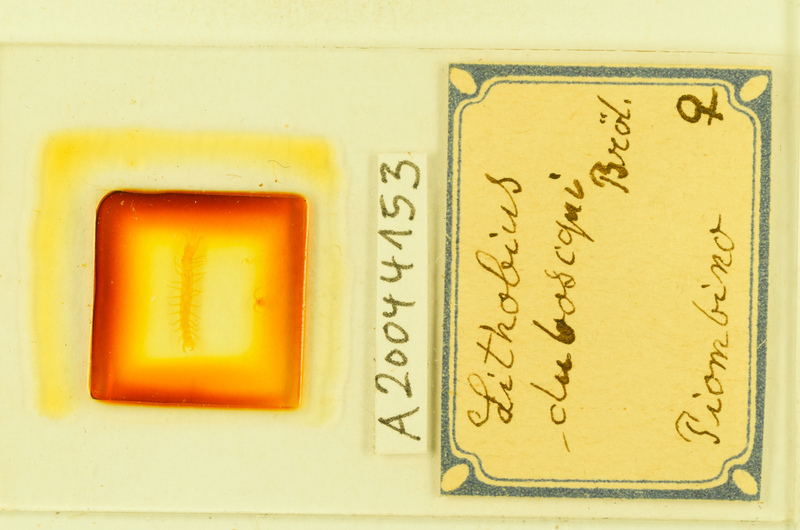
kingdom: Animalia
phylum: Arthropoda
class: Chilopoda
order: Lithobiomorpha
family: Lithobiidae
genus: Lithobius
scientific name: Lithobius microps
